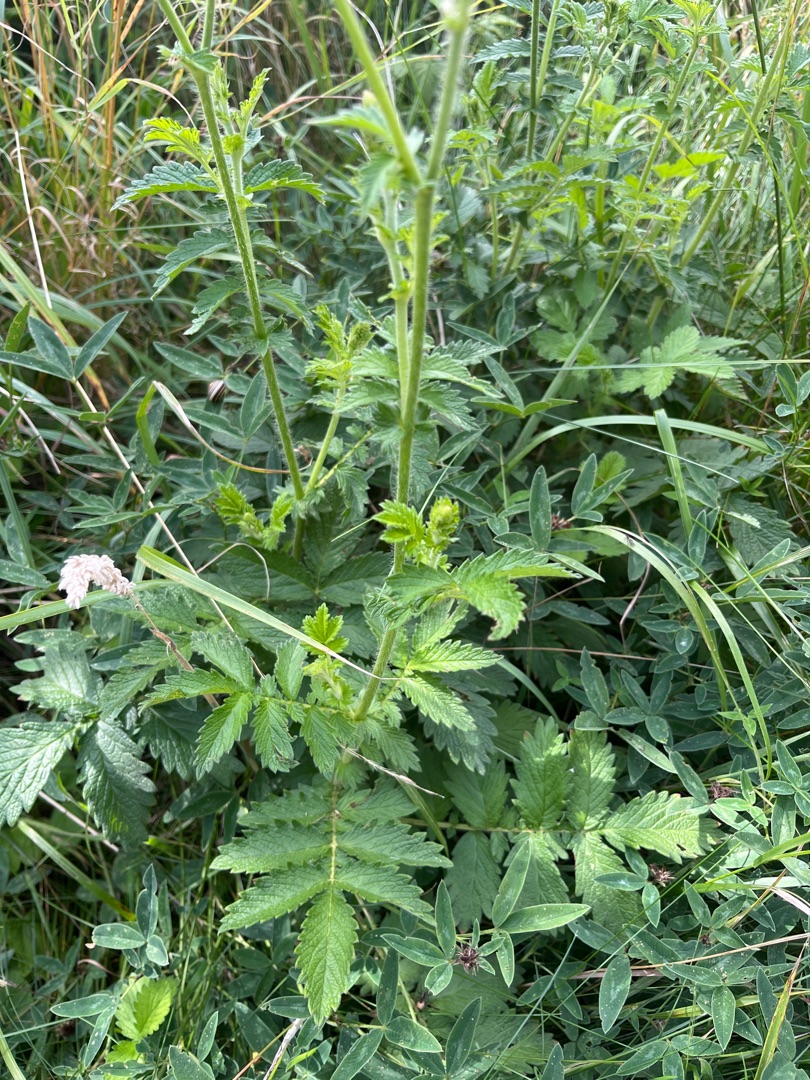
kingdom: Plantae
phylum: Tracheophyta
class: Magnoliopsida
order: Rosales
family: Rosaceae
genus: Agrimonia
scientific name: Agrimonia eupatoria
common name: Almindelig agermåne
